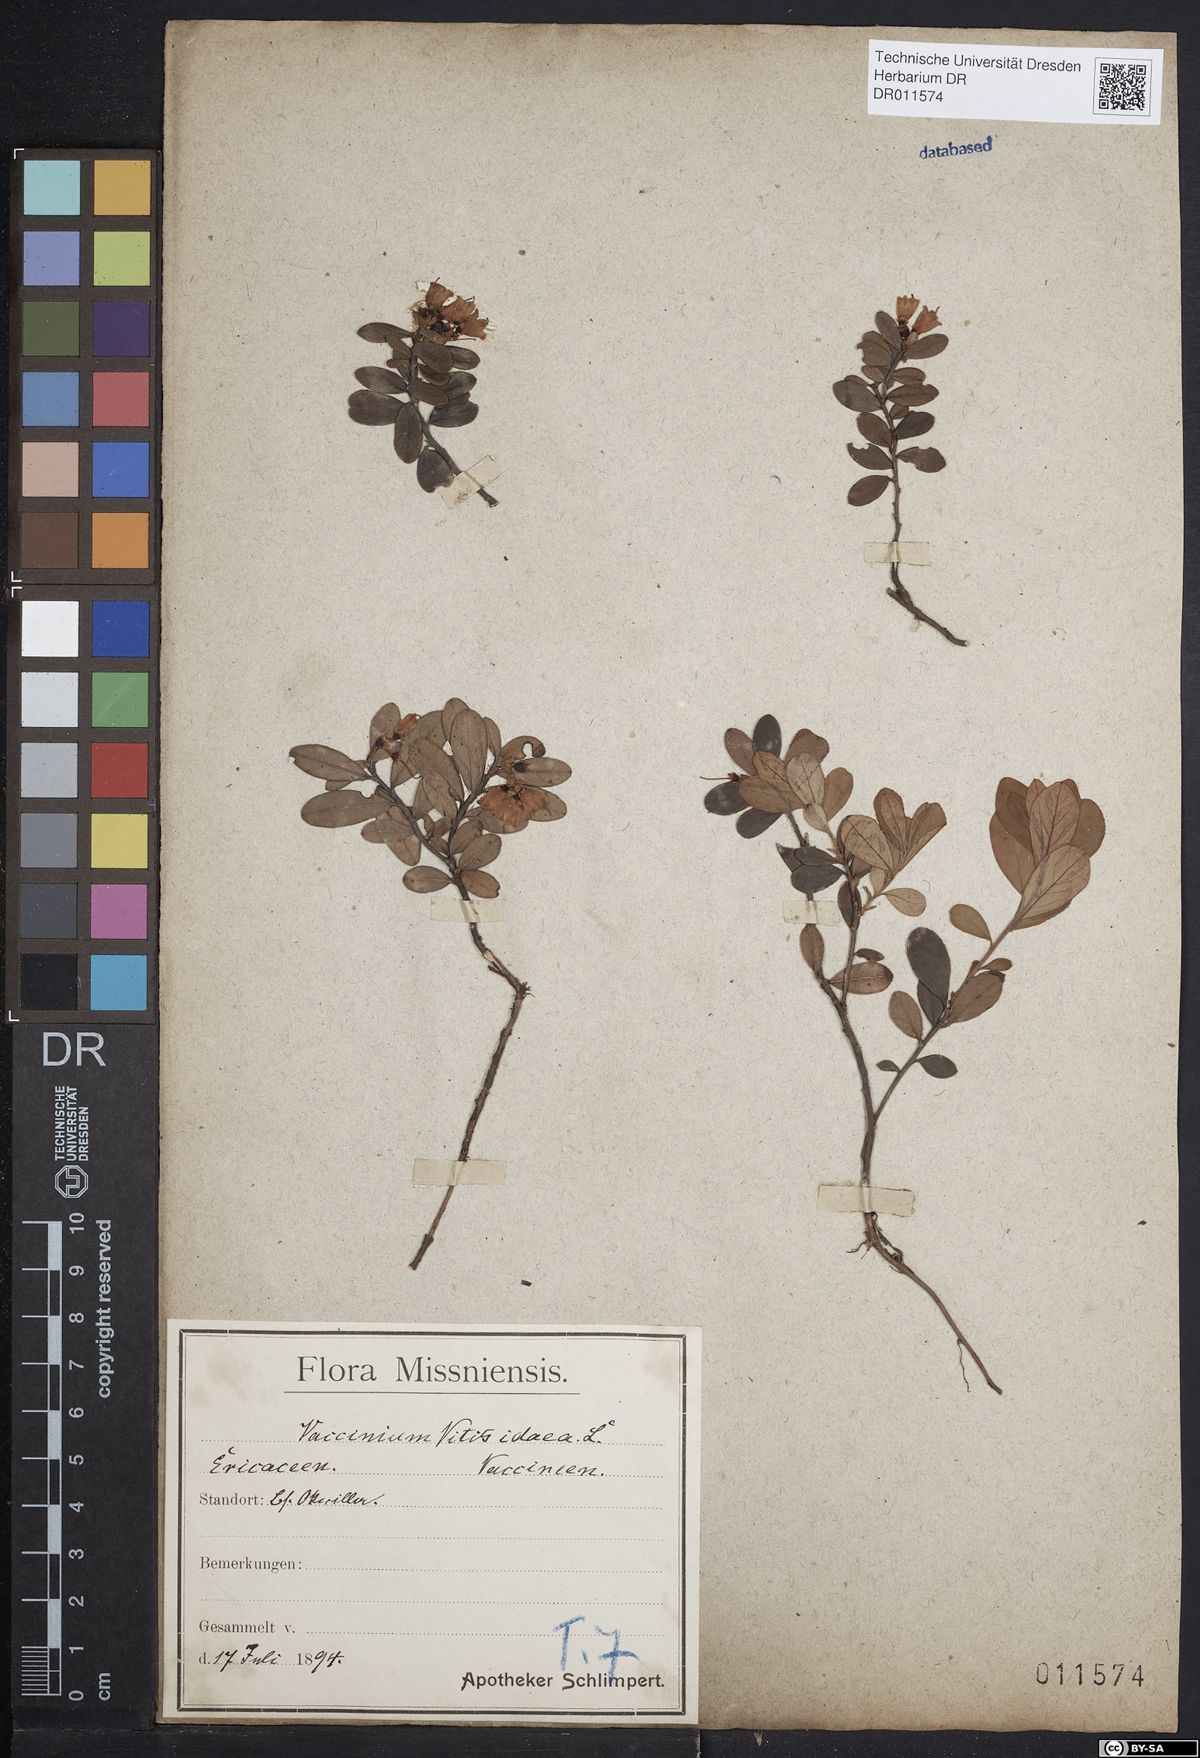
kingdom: Plantae
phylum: Tracheophyta
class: Magnoliopsida
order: Ericales
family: Ericaceae
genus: Vaccinium
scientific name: Vaccinium vitis-idaea
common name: Cowberry
